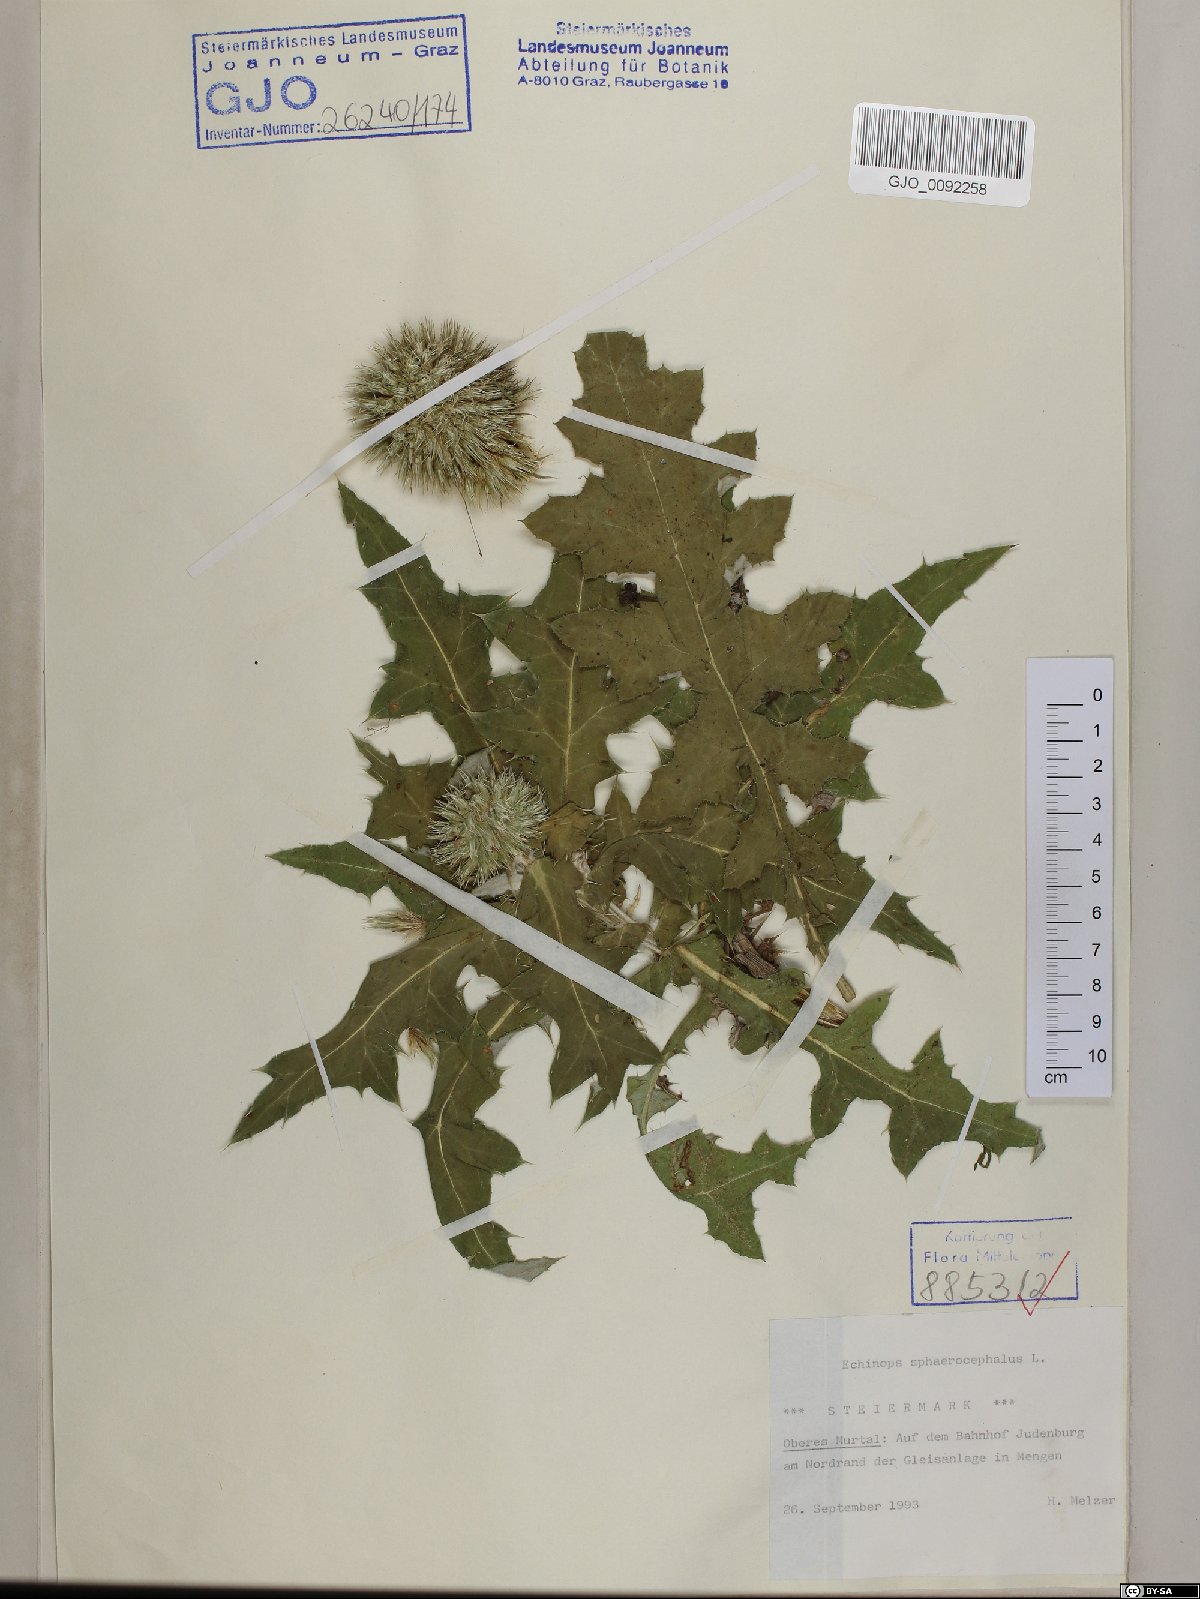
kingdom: Plantae
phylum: Tracheophyta
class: Magnoliopsida
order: Asterales
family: Asteraceae
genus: Echinops
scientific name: Echinops sphaerocephalus
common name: Glandular globe-thistle
